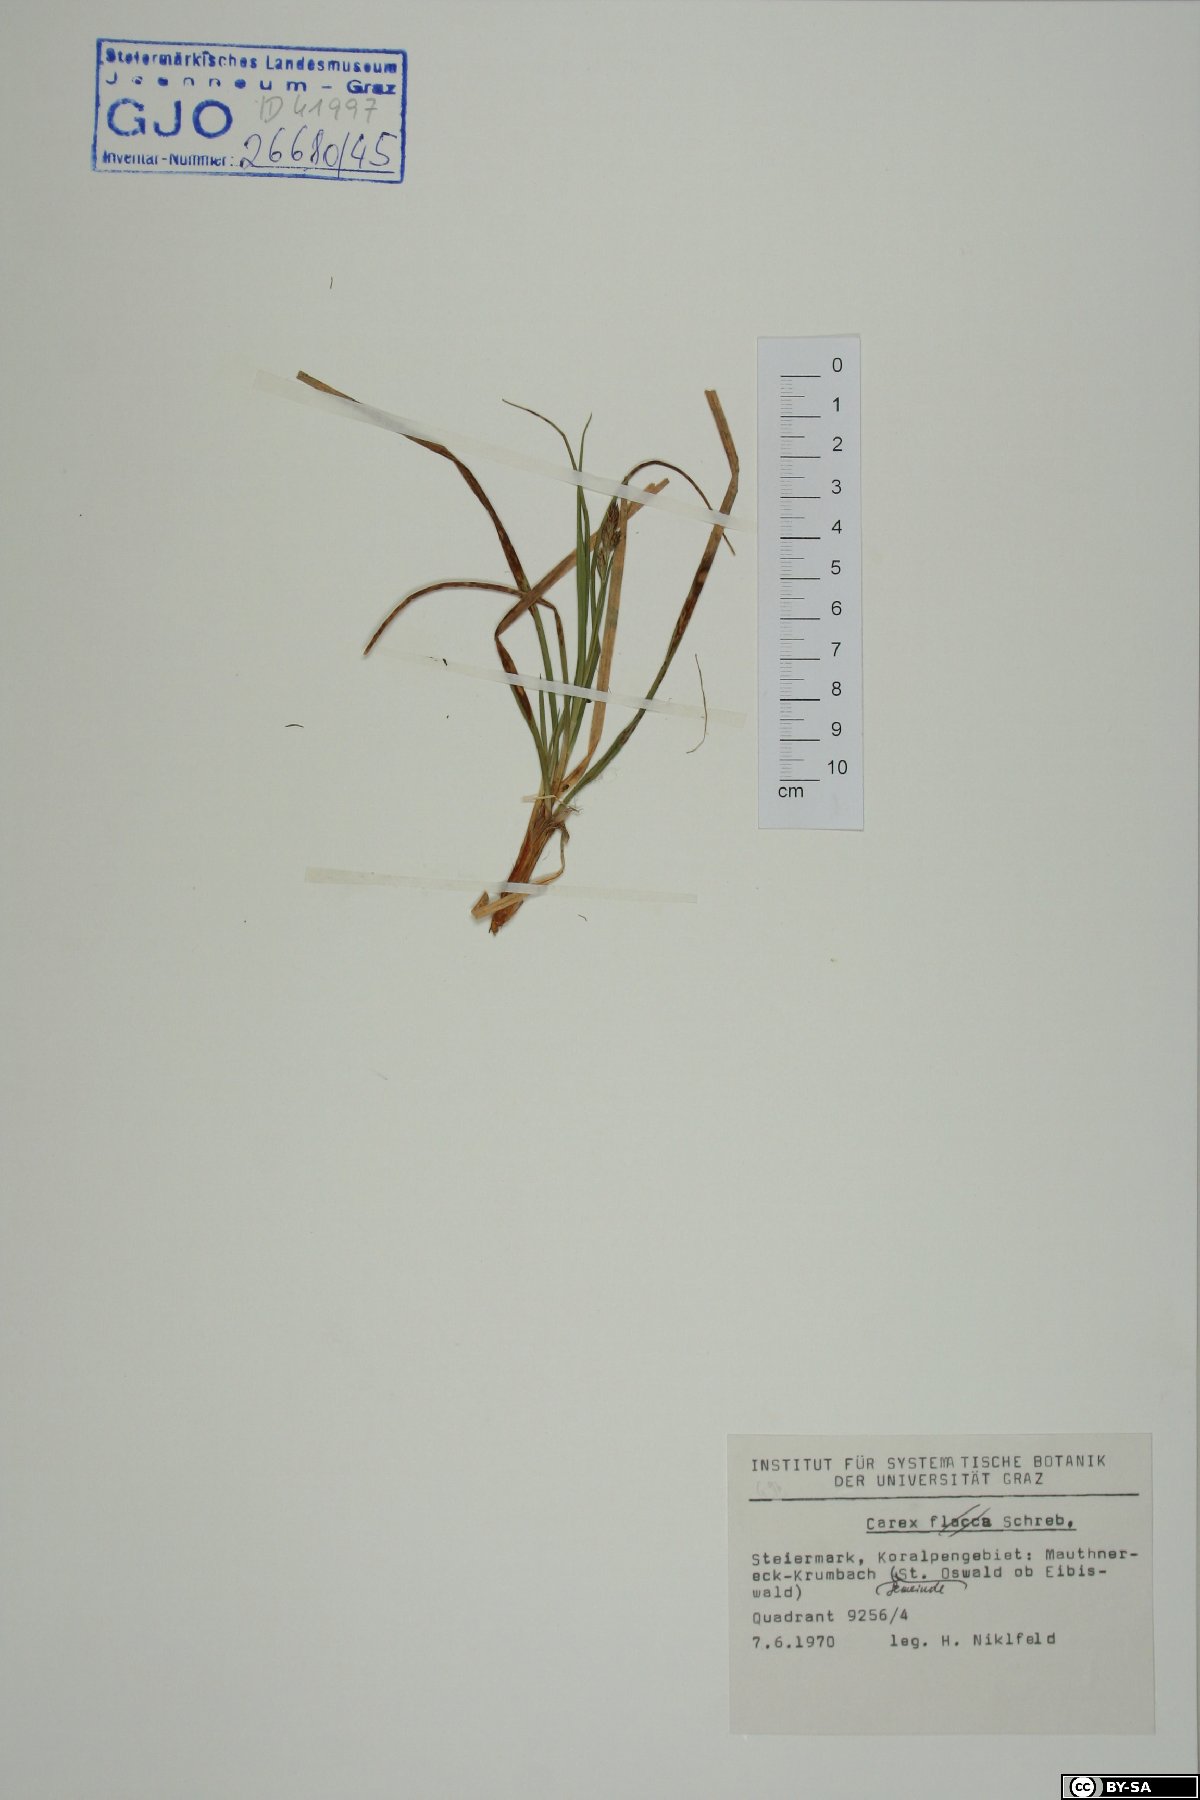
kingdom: Plantae
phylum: Tracheophyta
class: Liliopsida
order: Poales
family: Cyperaceae
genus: Carex
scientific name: Carex
